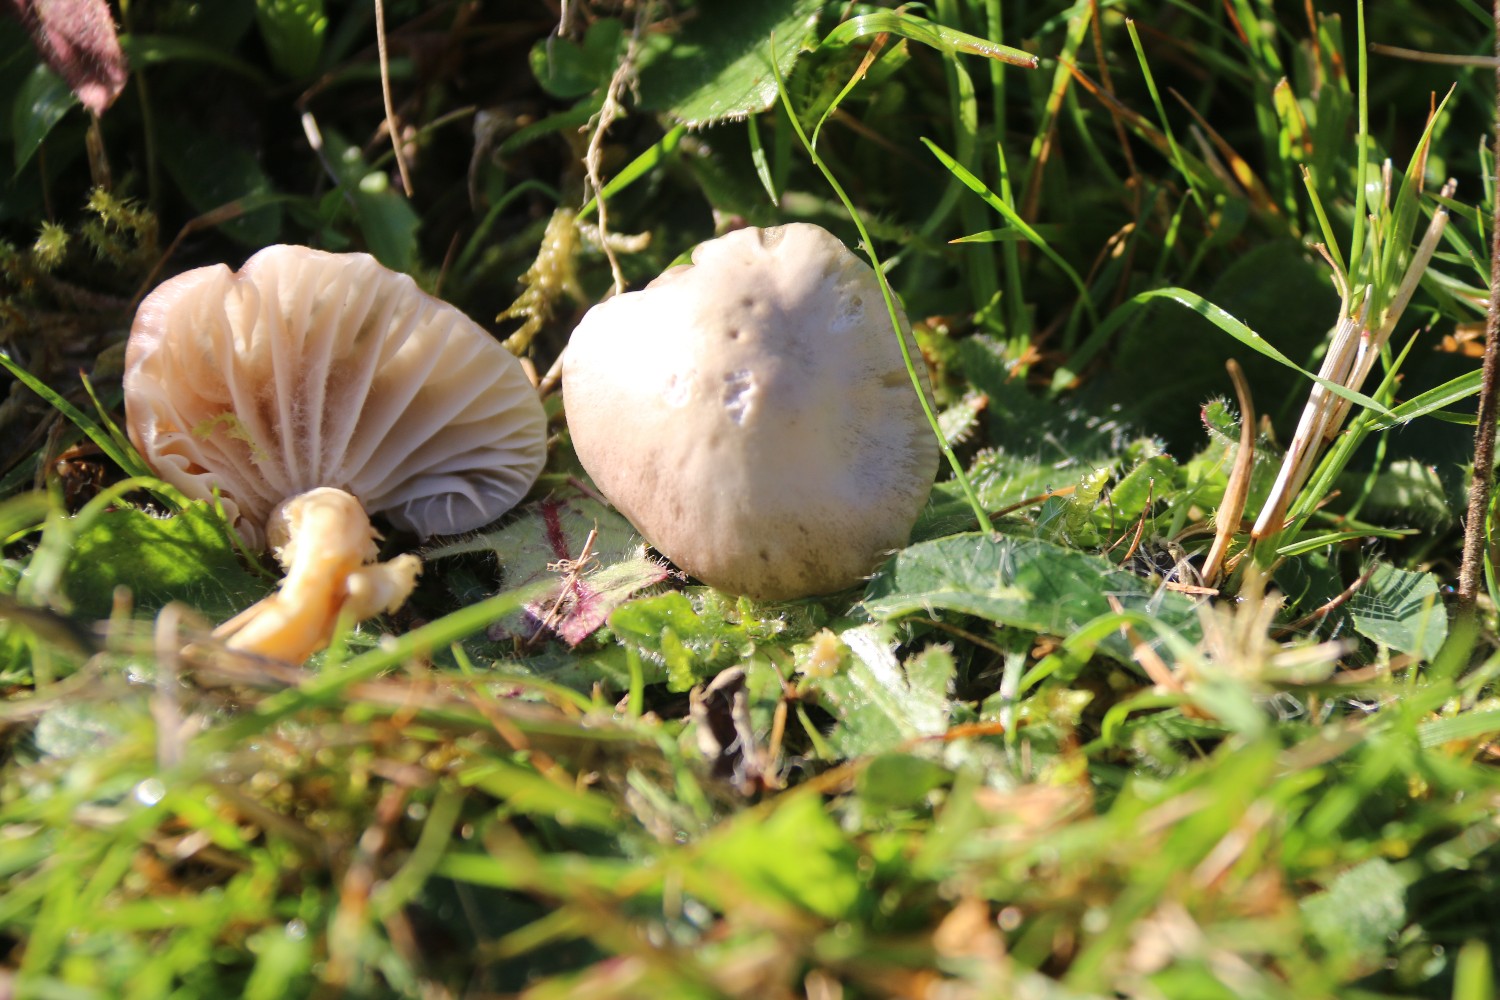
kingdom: Fungi
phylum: Basidiomycota
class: Agaricomycetes
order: Agaricales
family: Hygrophoraceae
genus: Cuphophyllus
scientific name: Cuphophyllus flavipes
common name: gulfodet vokshat
